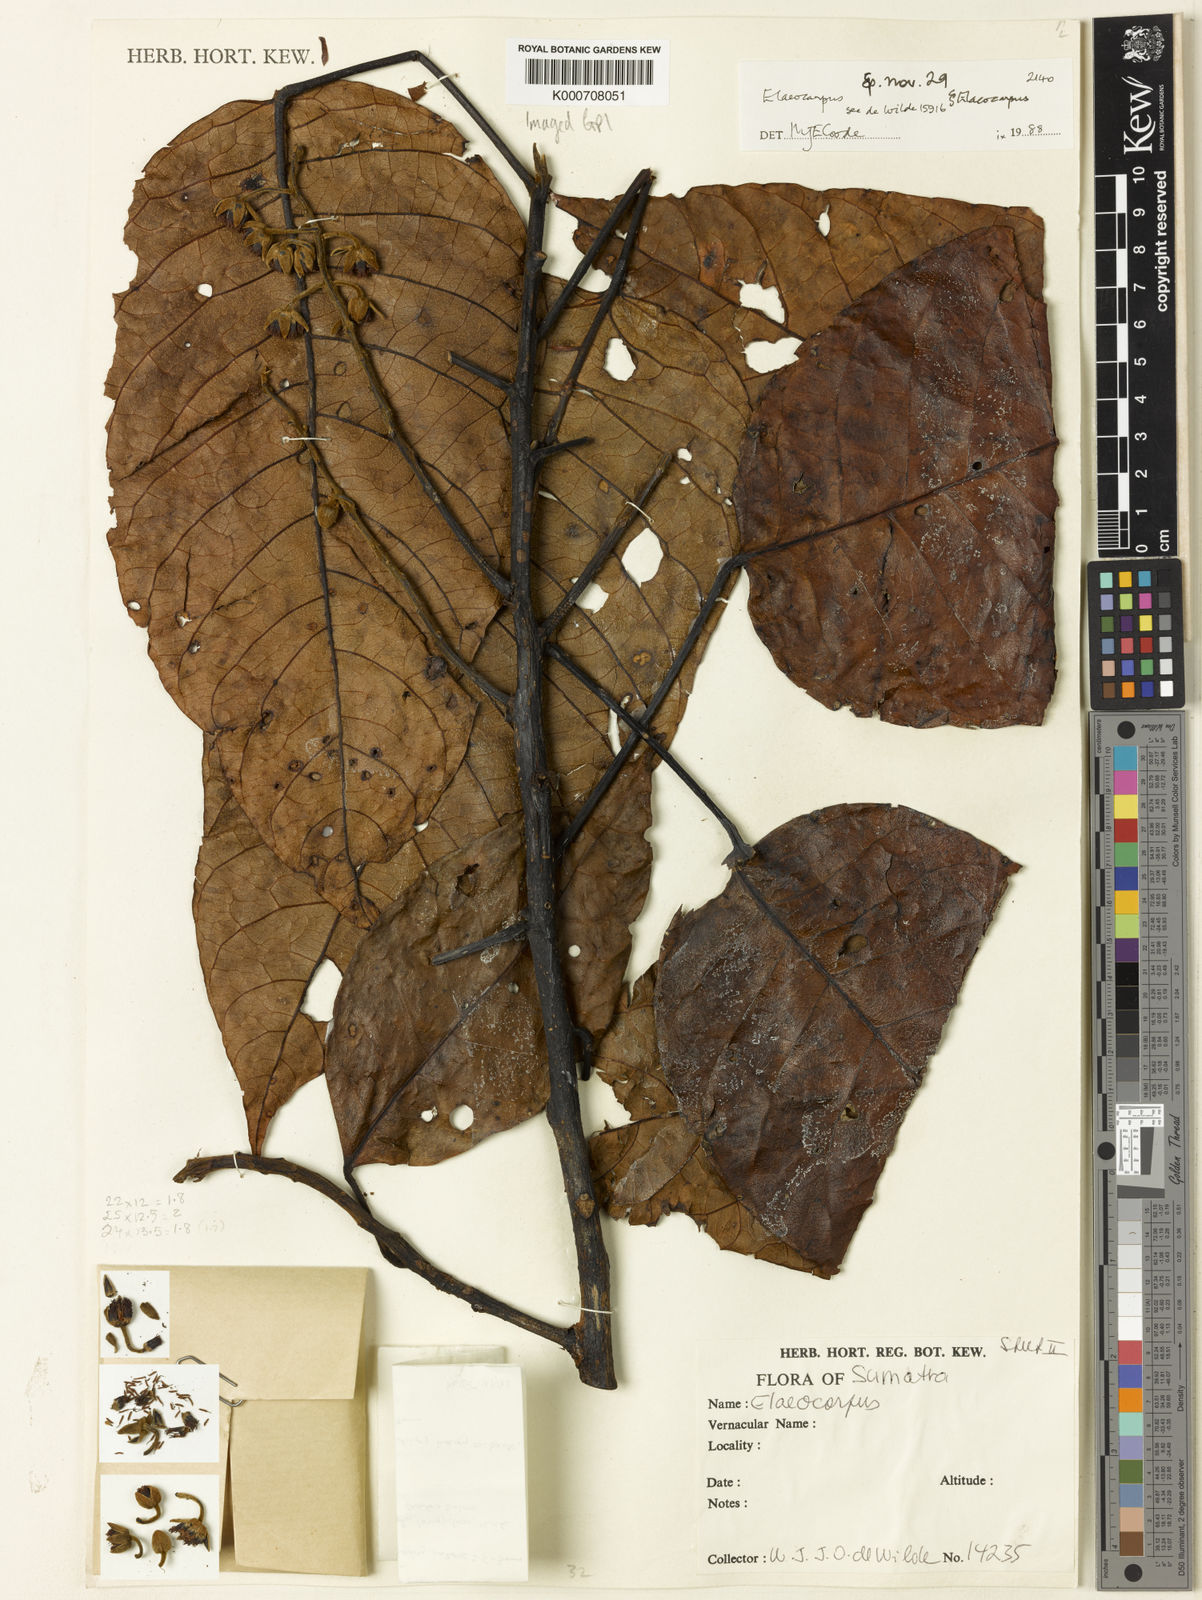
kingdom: Plantae
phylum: Tracheophyta
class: Magnoliopsida
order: Oxalidales
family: Elaeocarpaceae
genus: Elaeocarpus
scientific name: Elaeocarpus brigittae
